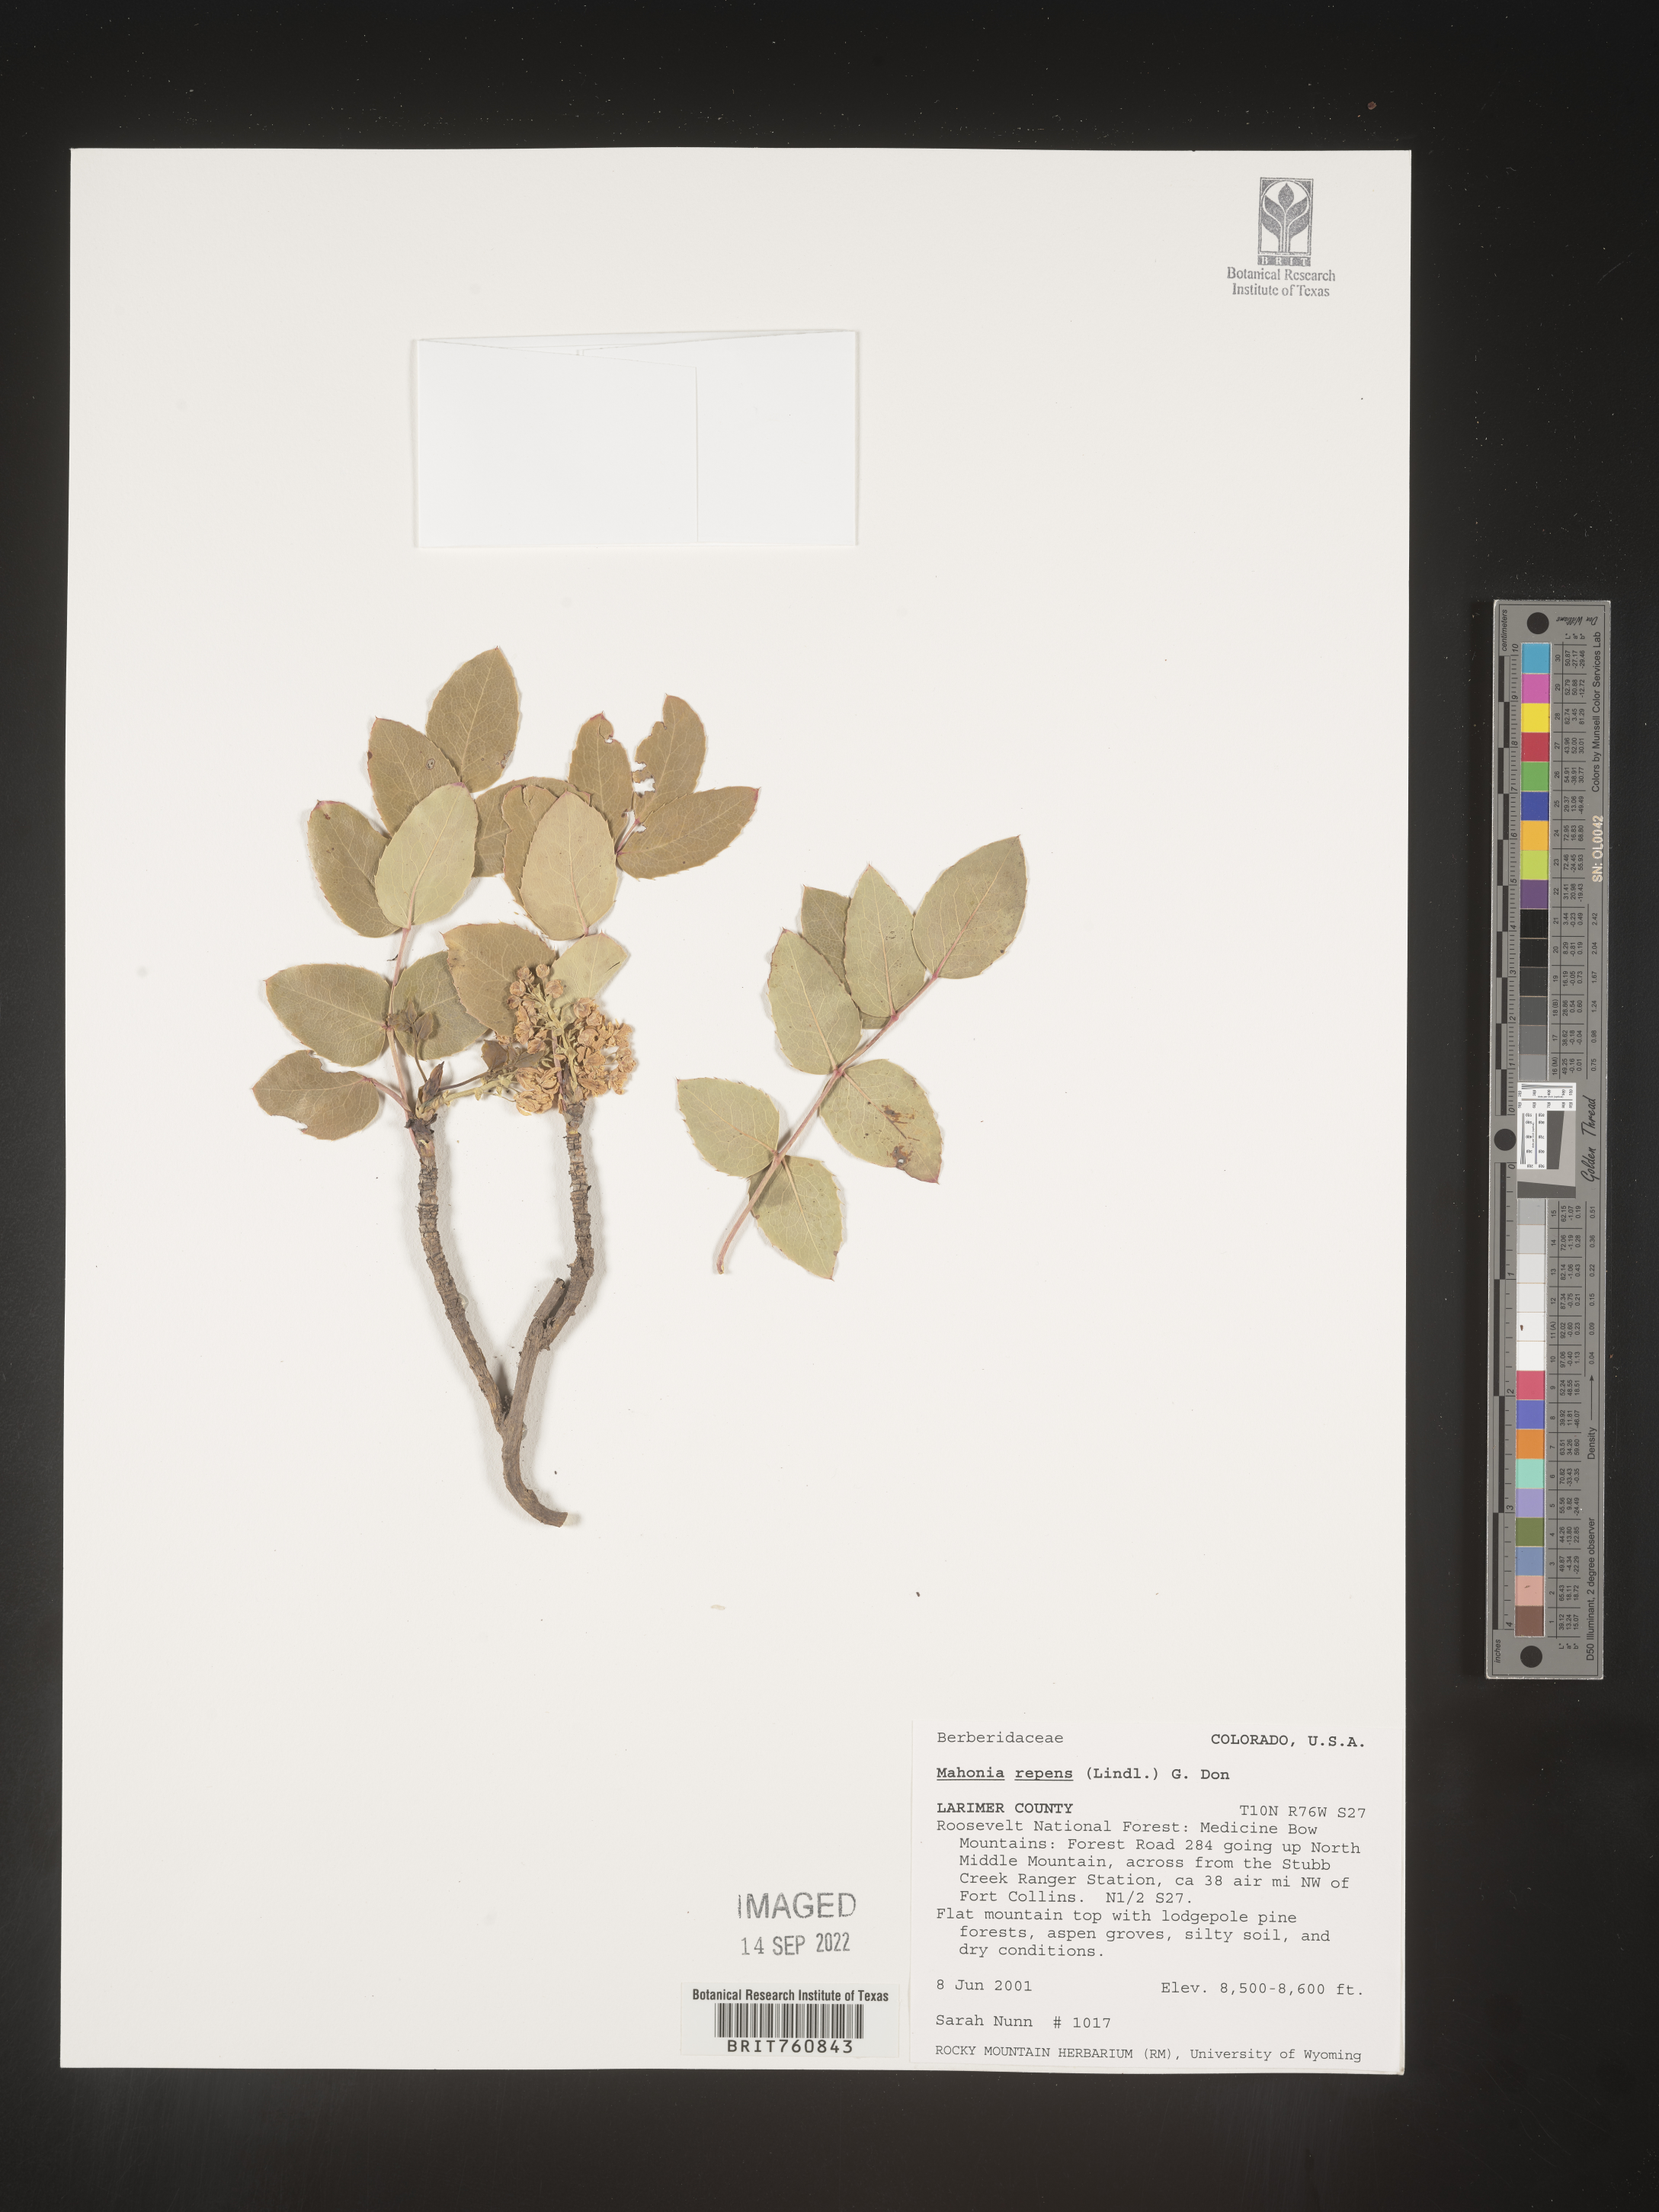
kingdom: Plantae
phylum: Tracheophyta
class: Magnoliopsida
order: Ranunculales
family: Berberidaceae
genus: Mahonia
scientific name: Mahonia repens
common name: Creeping oregon-grape
